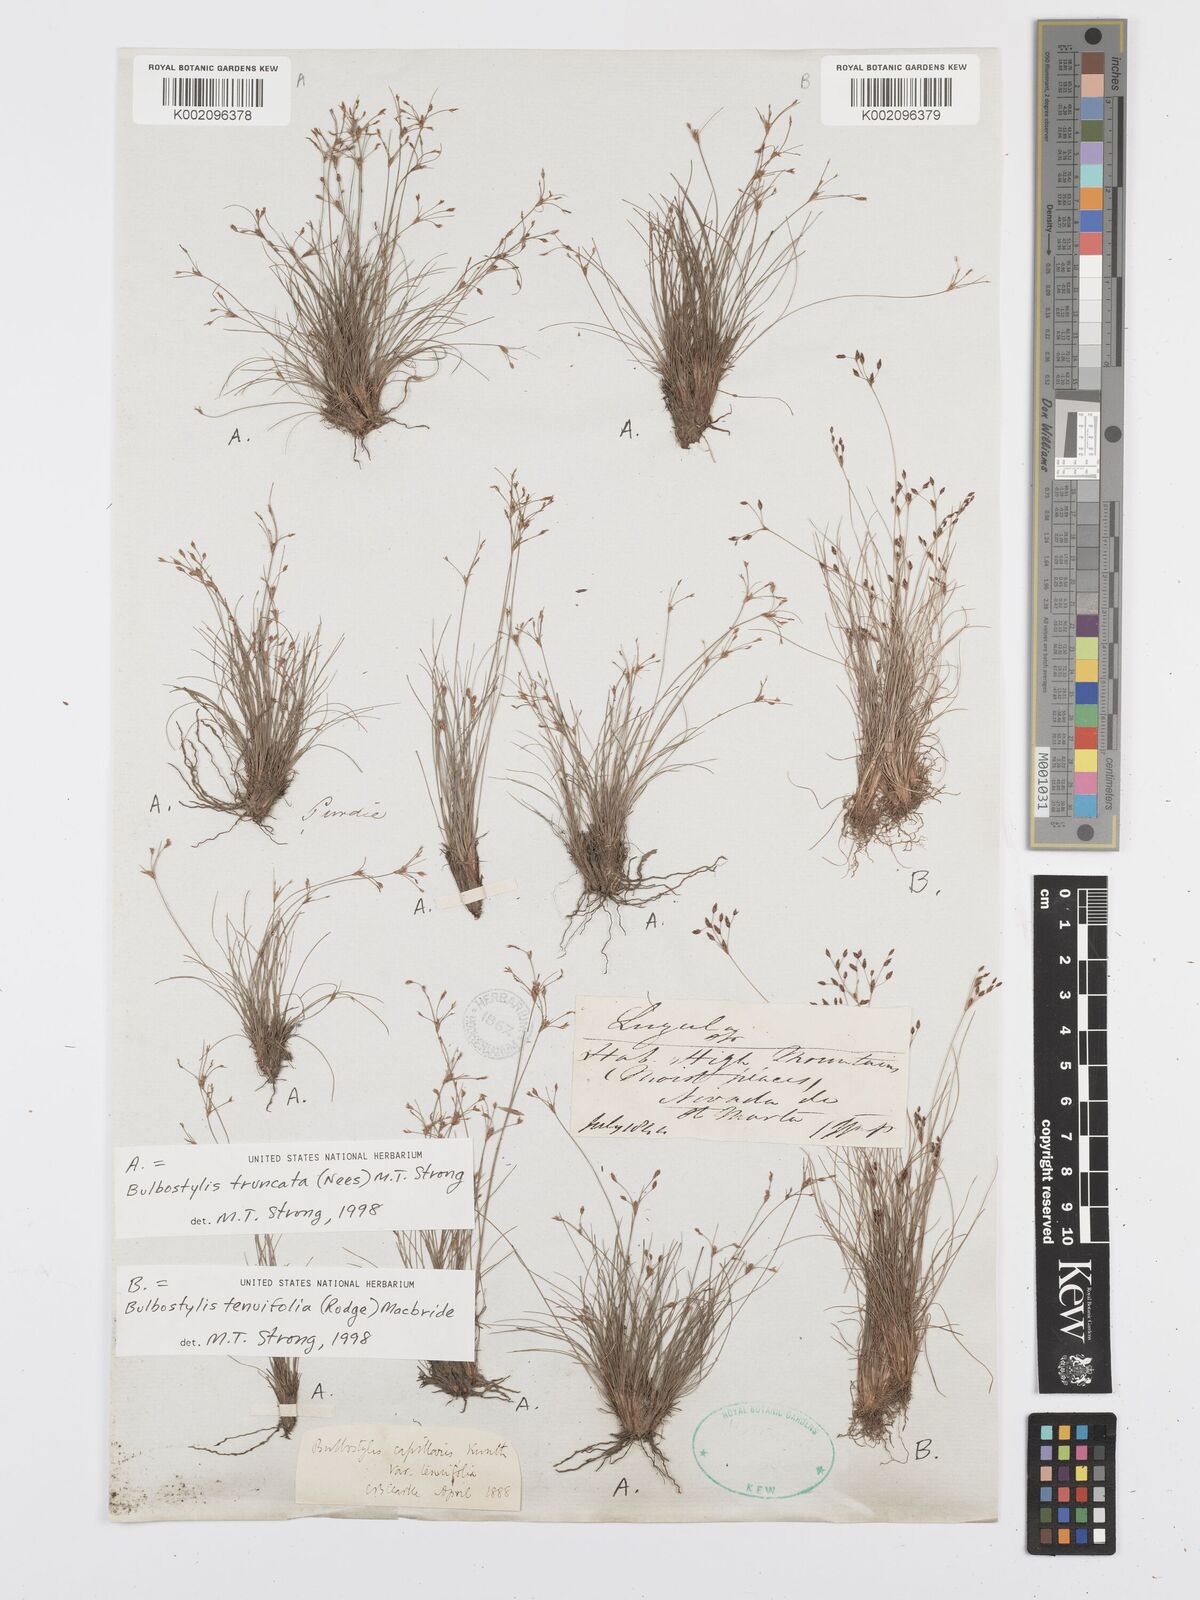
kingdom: Plantae
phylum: Tracheophyta
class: Liliopsida
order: Poales
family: Cyperaceae
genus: Bulbostylis
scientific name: Bulbostylis truncata
